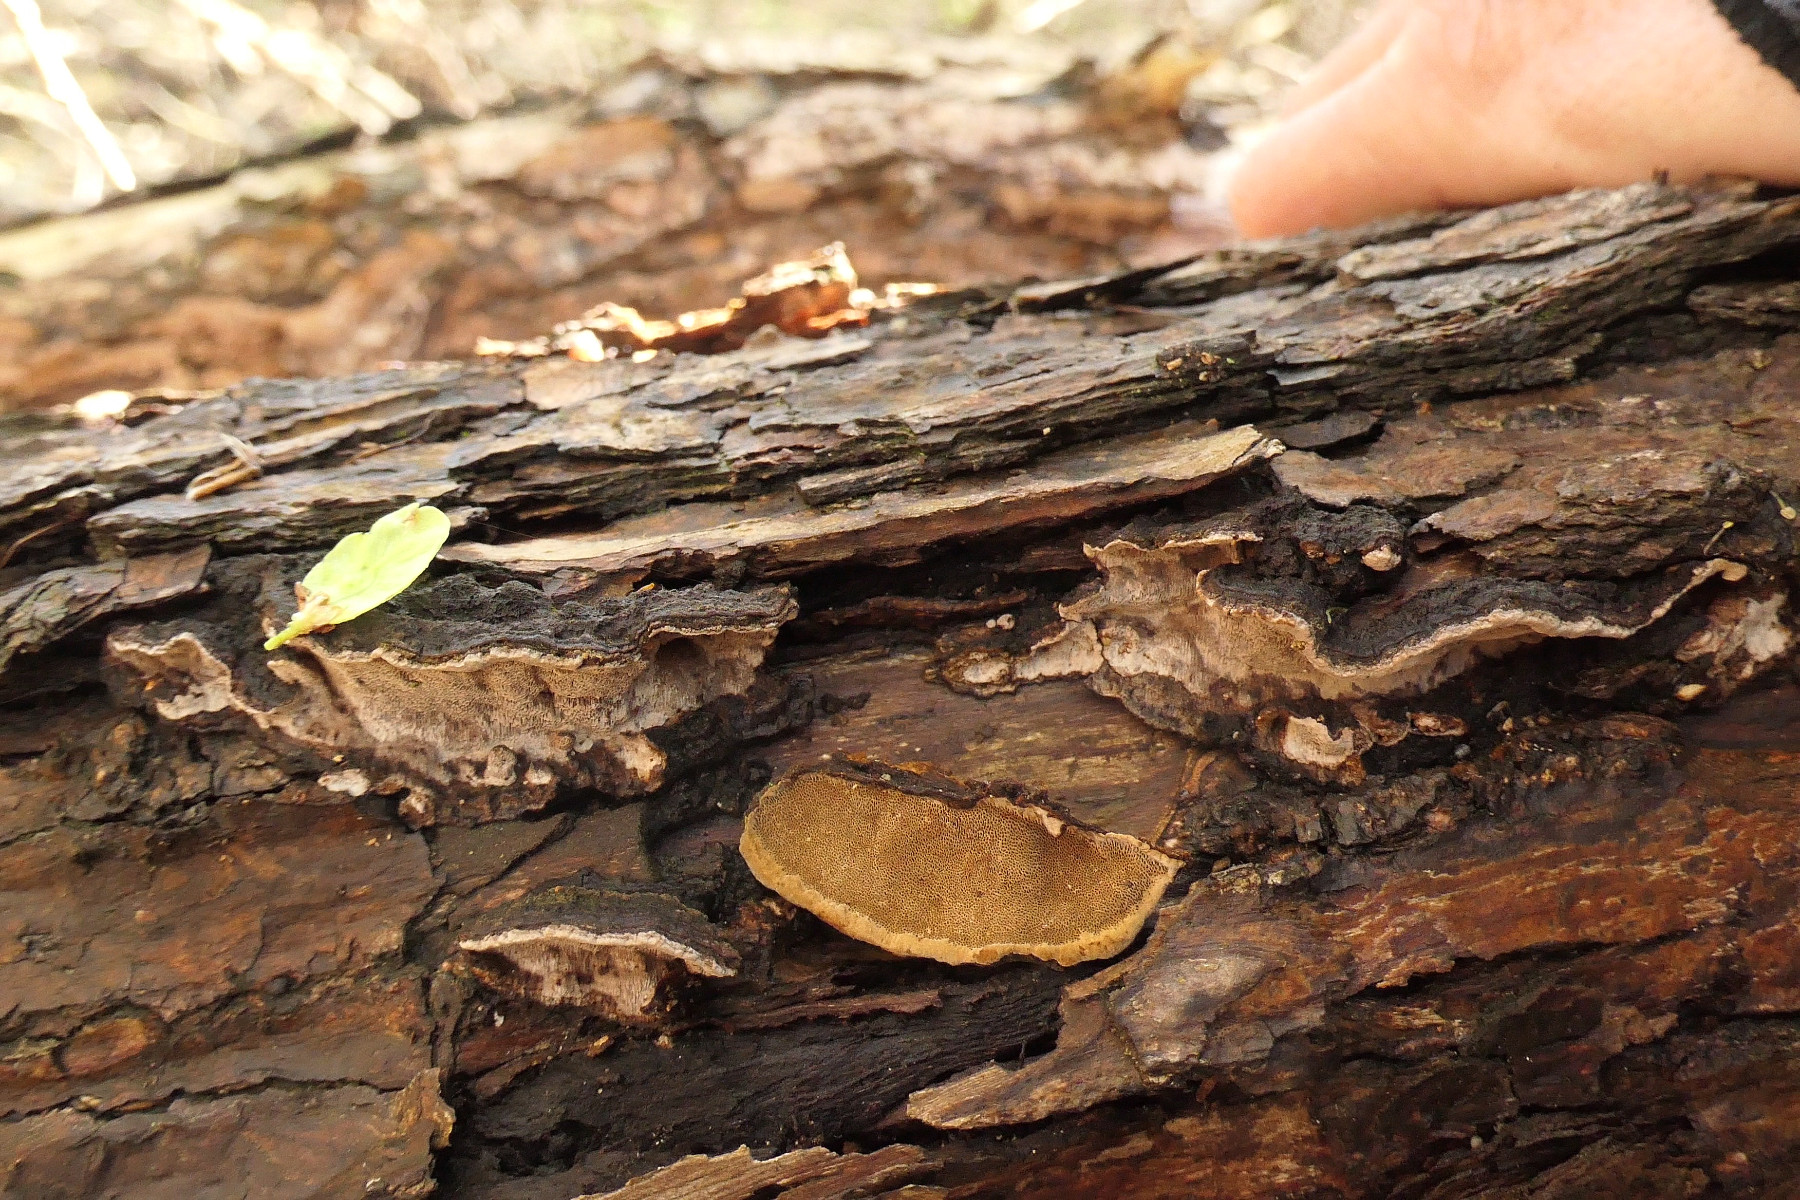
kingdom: Fungi
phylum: Basidiomycota
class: Agaricomycetes
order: Hymenochaetales
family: Hymenochaetaceae
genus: Phellinopsis
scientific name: Phellinopsis conchata
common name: pile-ildporesvamp
